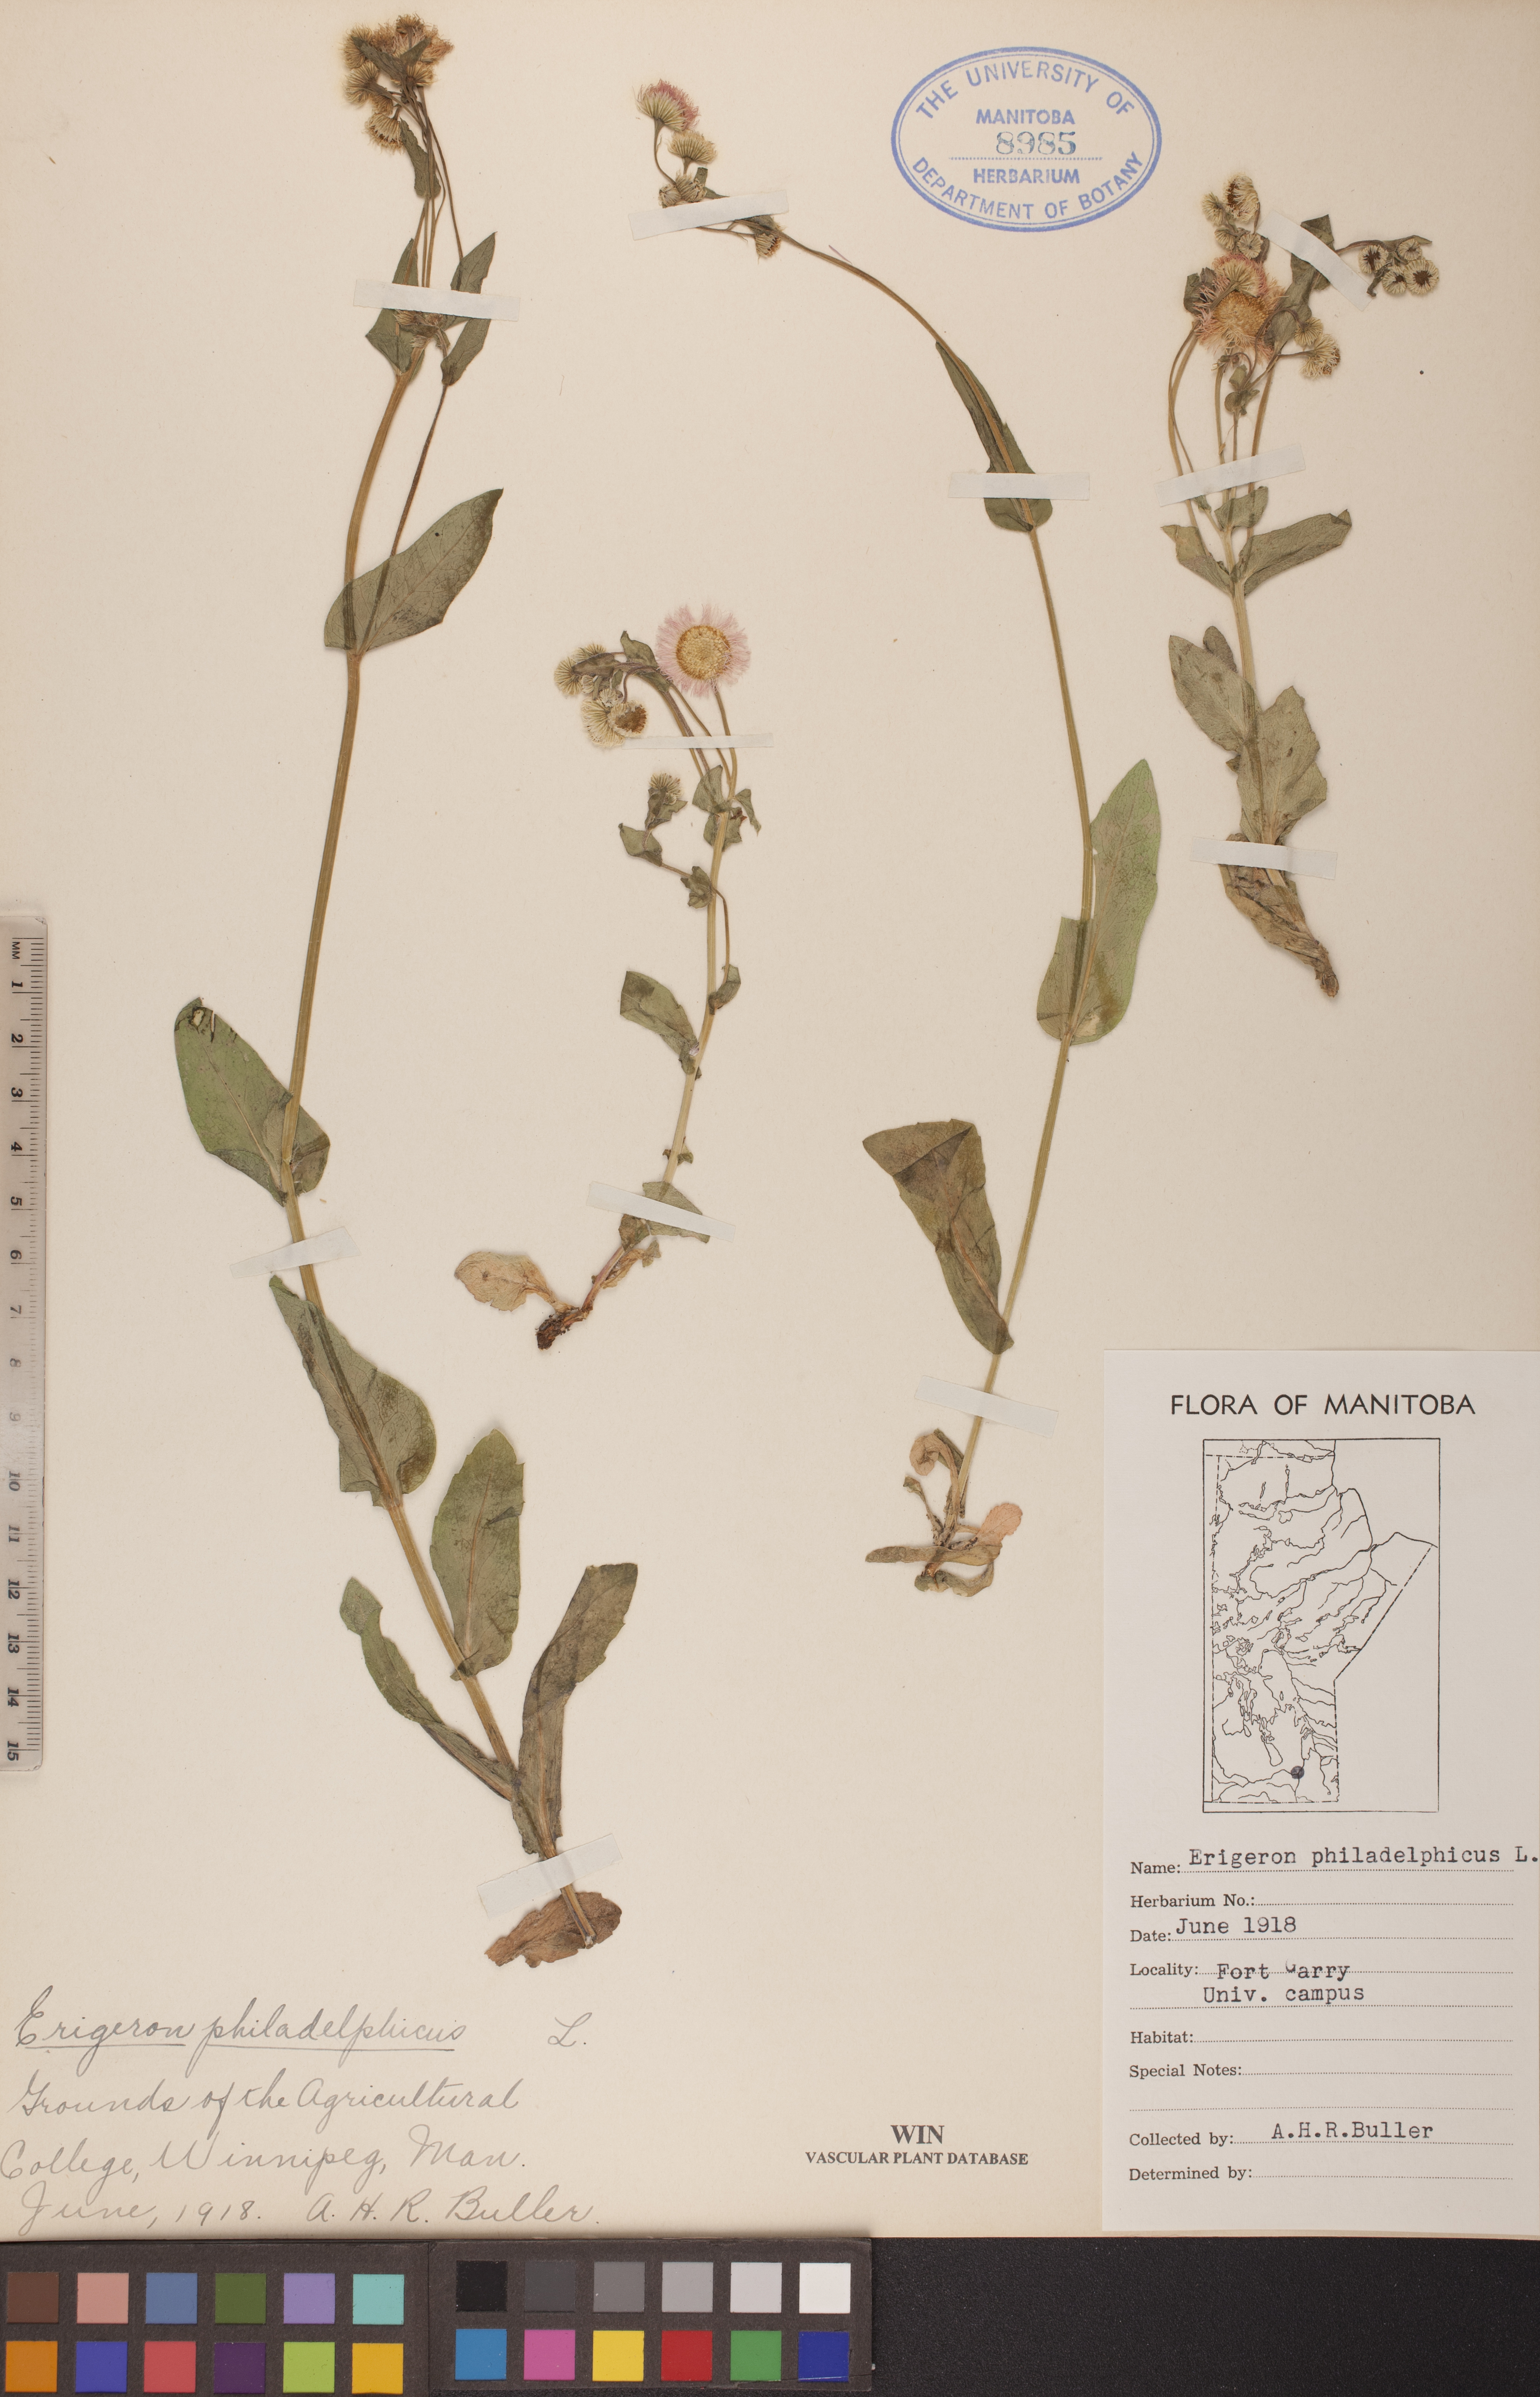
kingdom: Plantae
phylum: Tracheophyta
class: Magnoliopsida
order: Asterales
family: Asteraceae
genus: Erigeron
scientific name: Erigeron philadelphicus
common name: Robin's-plantain
